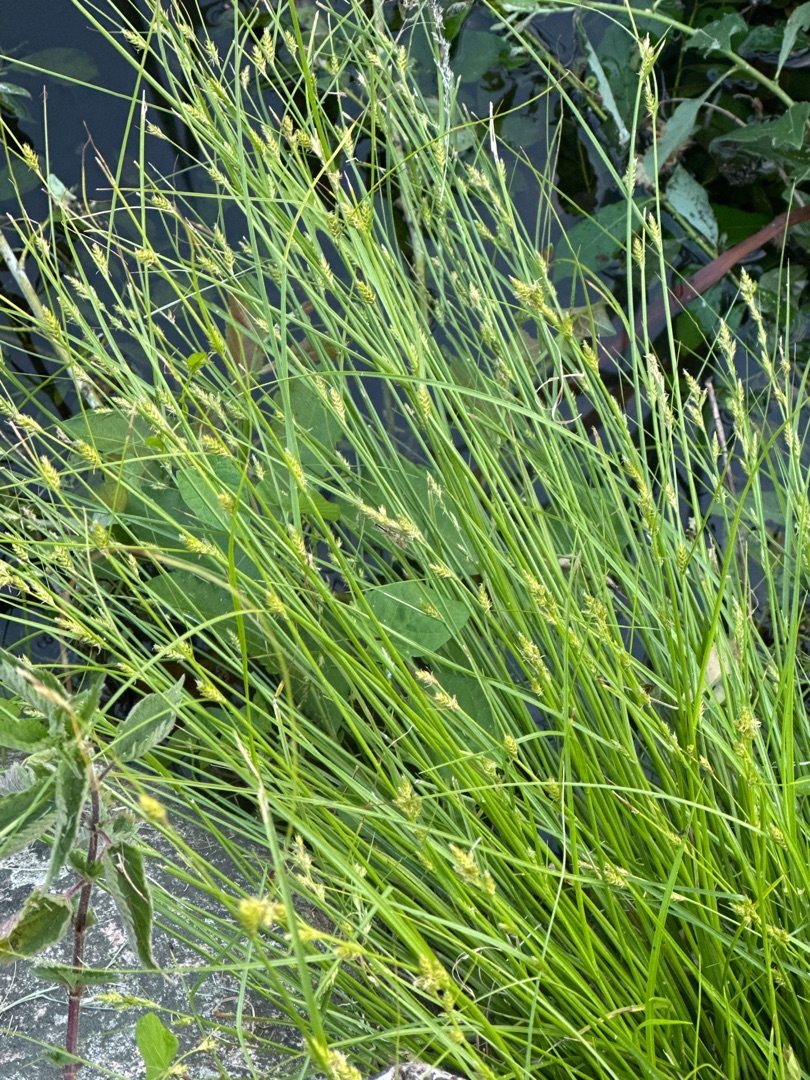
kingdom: Plantae
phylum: Tracheophyta
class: Liliopsida
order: Poales
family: Cyperaceae
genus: Carex
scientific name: Carex remota
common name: Akselblomstret star
